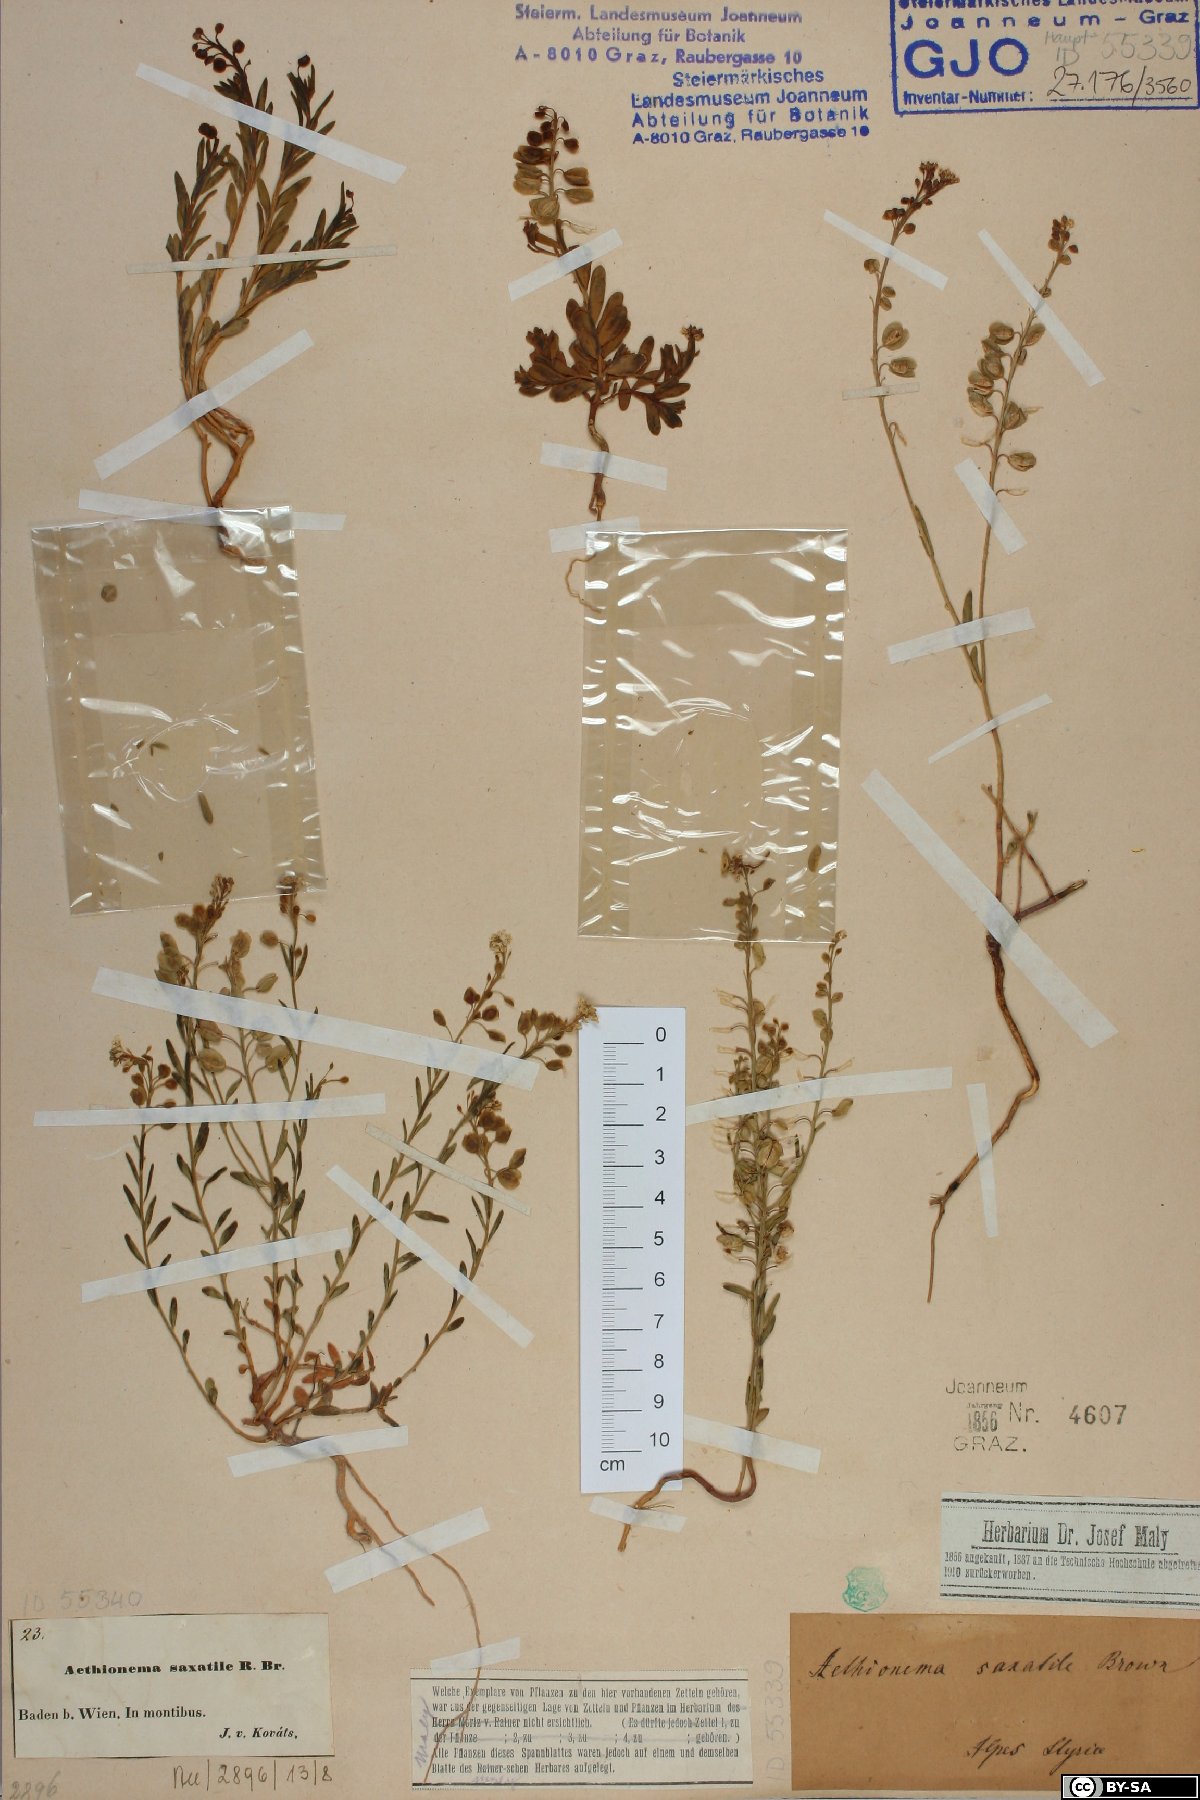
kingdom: Plantae
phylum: Tracheophyta
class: Magnoliopsida
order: Brassicales
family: Brassicaceae
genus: Aethionema
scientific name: Aethionema saxatile
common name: Burnt candytuft
